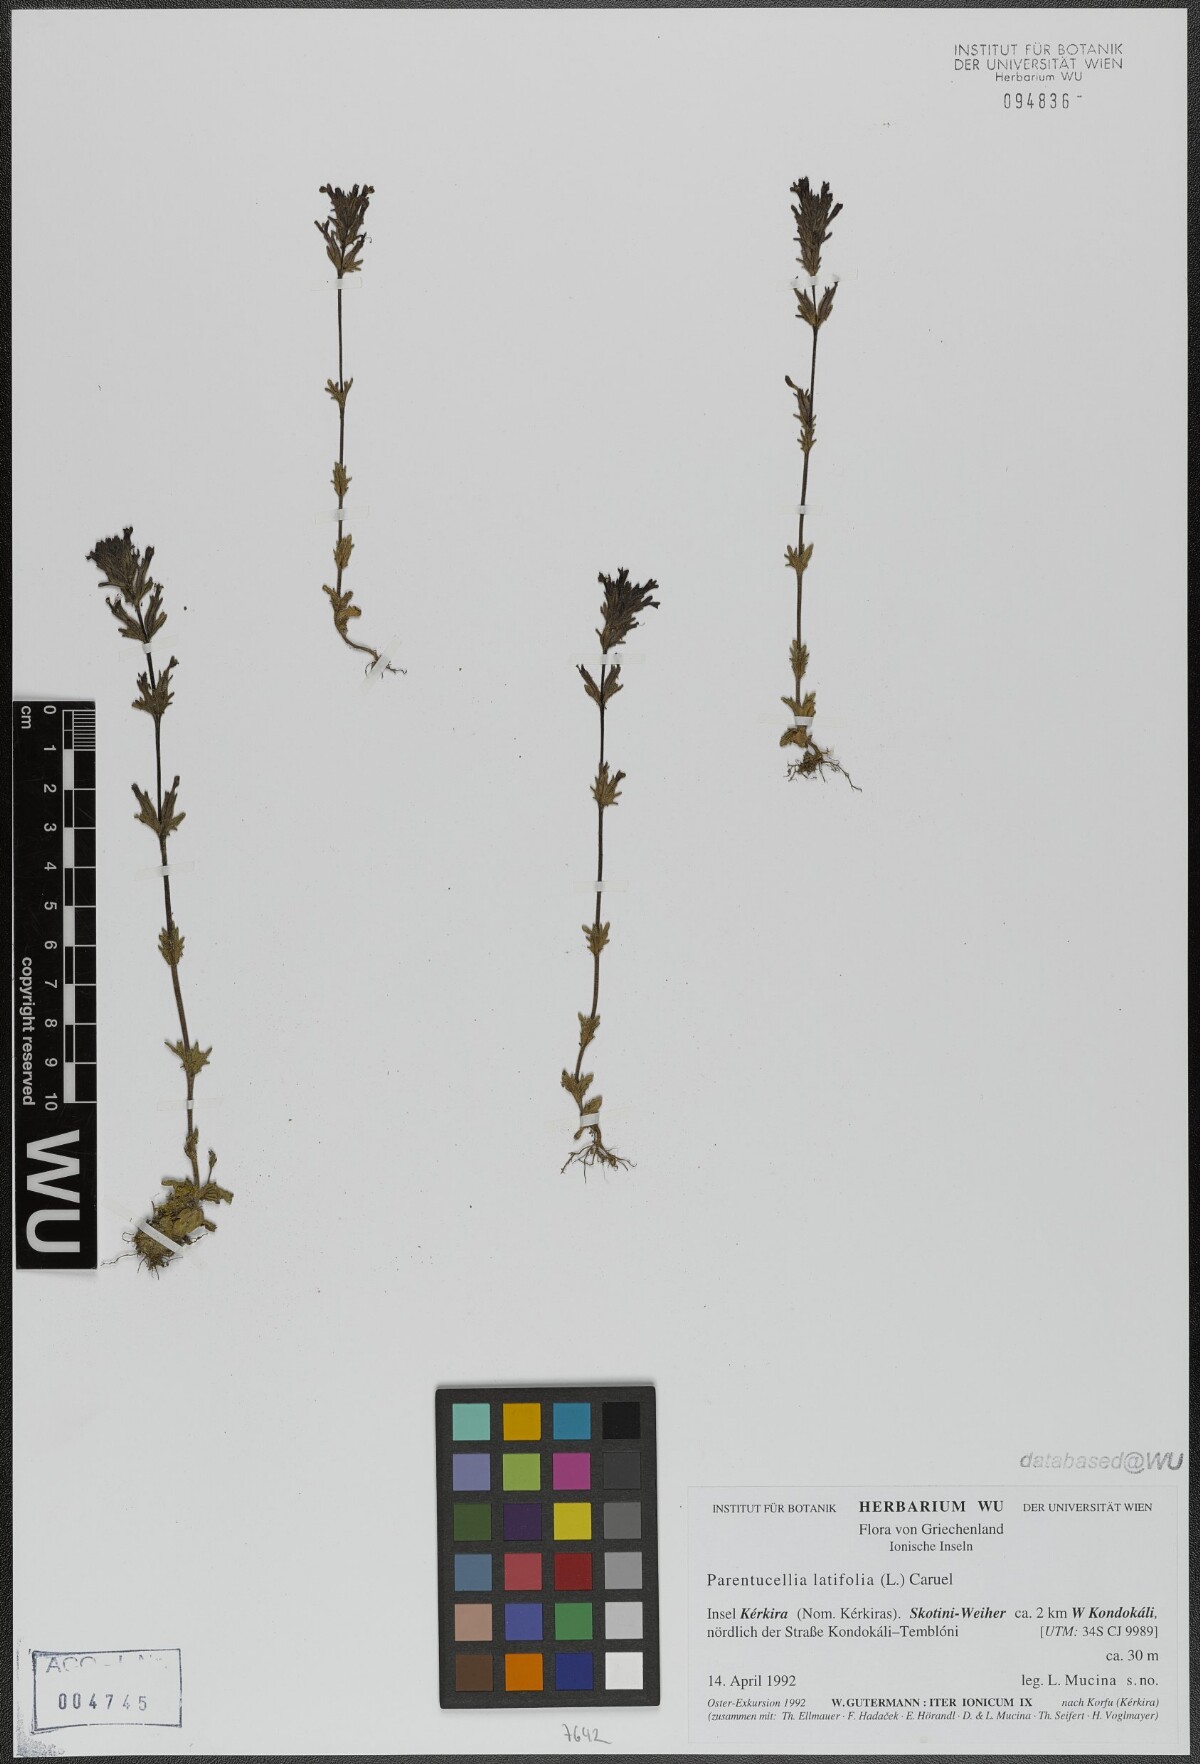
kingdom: Plantae
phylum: Tracheophyta
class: Magnoliopsida
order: Lamiales
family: Orobanchaceae
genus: Parentucellia
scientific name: Parentucellia latifolia
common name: Broadleaf glandweed
